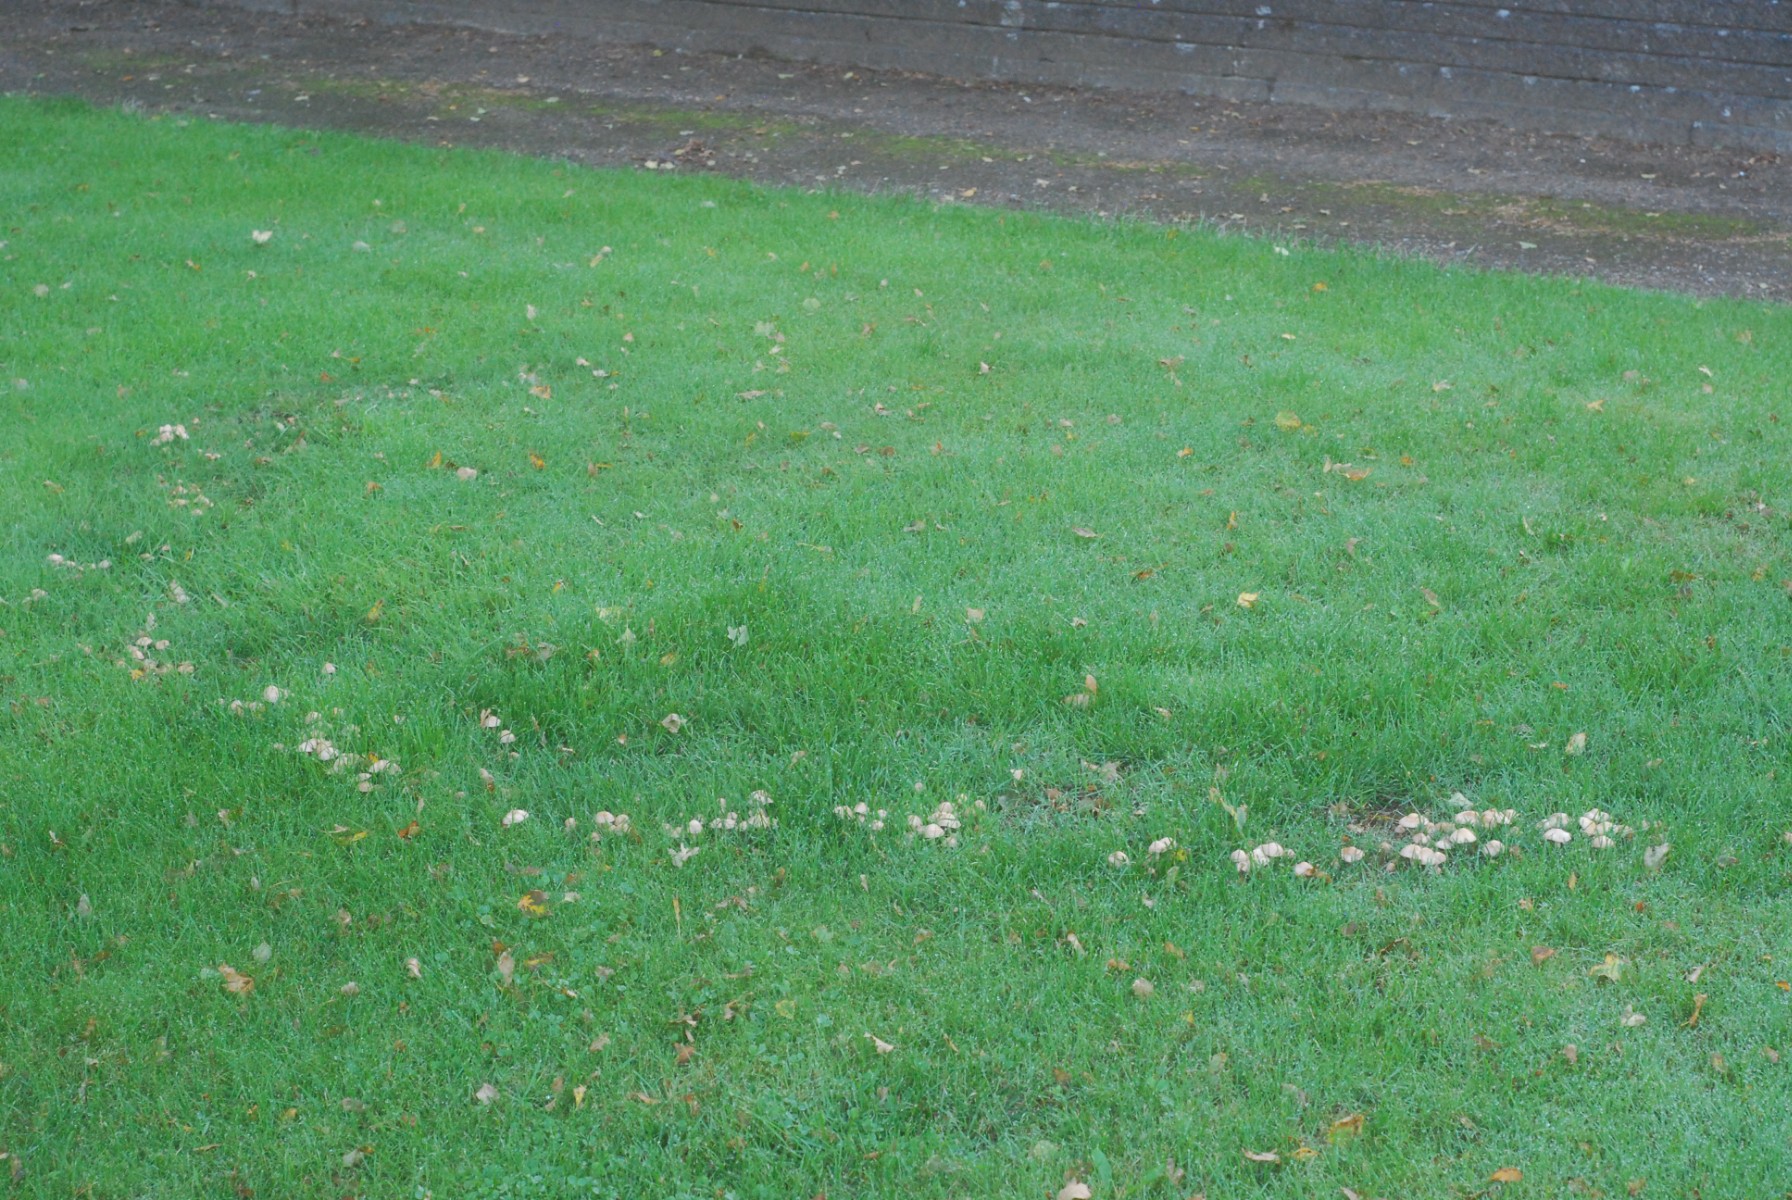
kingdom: Fungi
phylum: Basidiomycota
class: Agaricomycetes
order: Agaricales
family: Marasmiaceae
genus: Marasmius
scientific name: Marasmius oreades
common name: elledans-bruskhat
